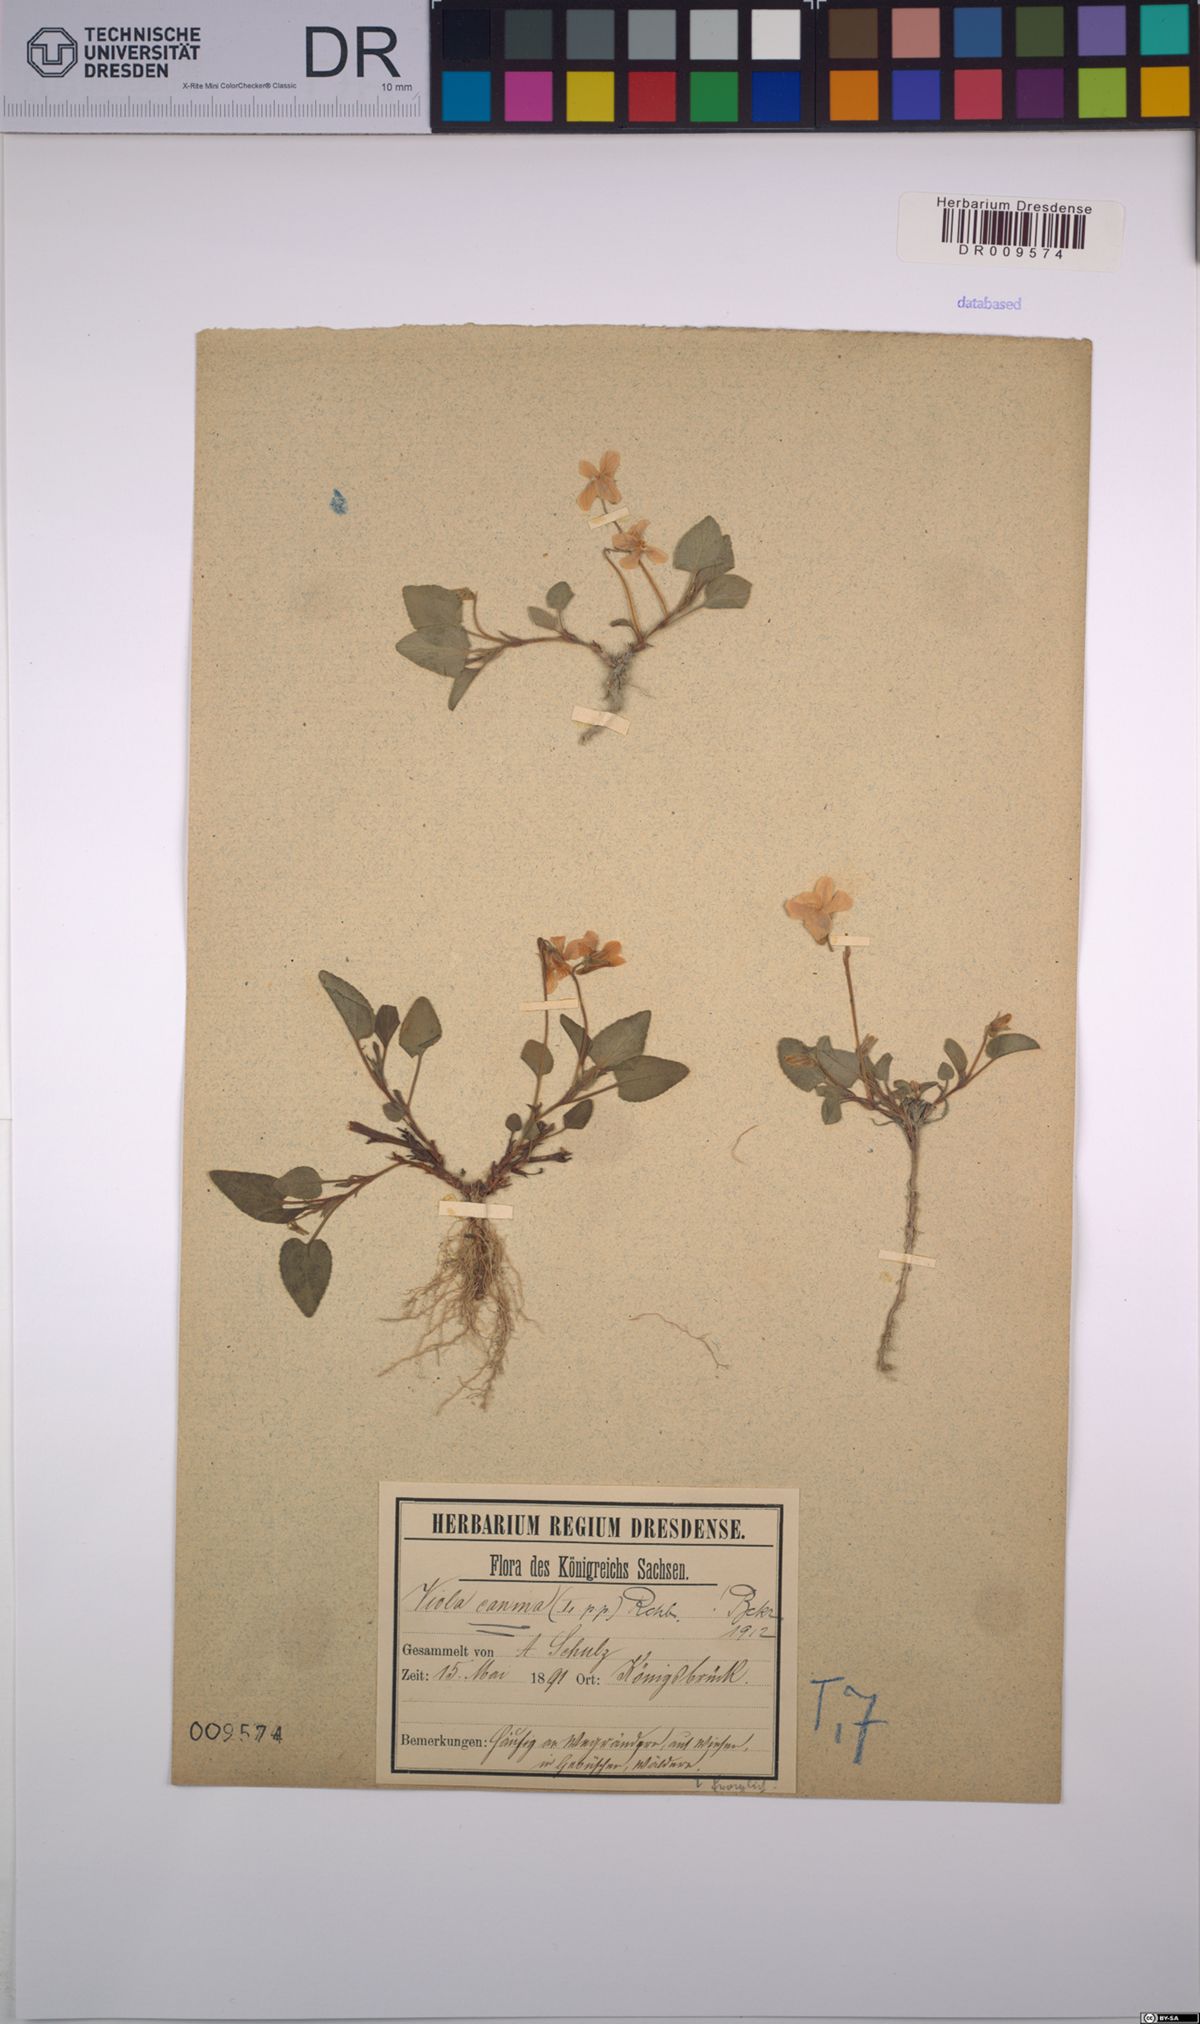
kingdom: Plantae
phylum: Tracheophyta
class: Magnoliopsida
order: Malpighiales
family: Violaceae
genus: Viola
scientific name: Viola canina
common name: Heath dog-violet
